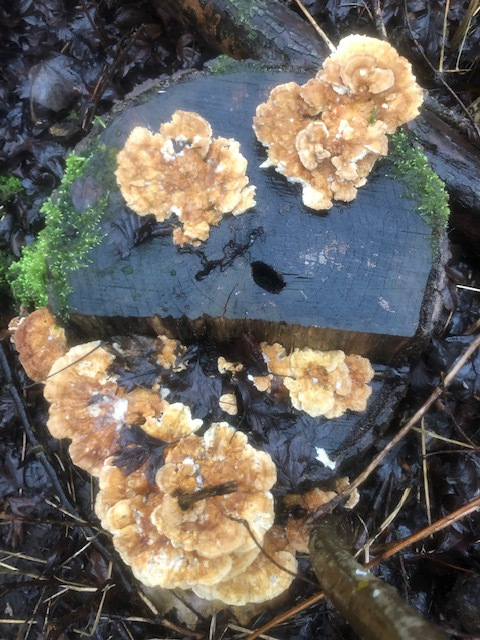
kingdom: Fungi
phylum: Basidiomycota
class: Agaricomycetes
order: Polyporales
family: Polyporaceae
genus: Trametes
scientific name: Trametes ochracea
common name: bæltet læderporesvamp
